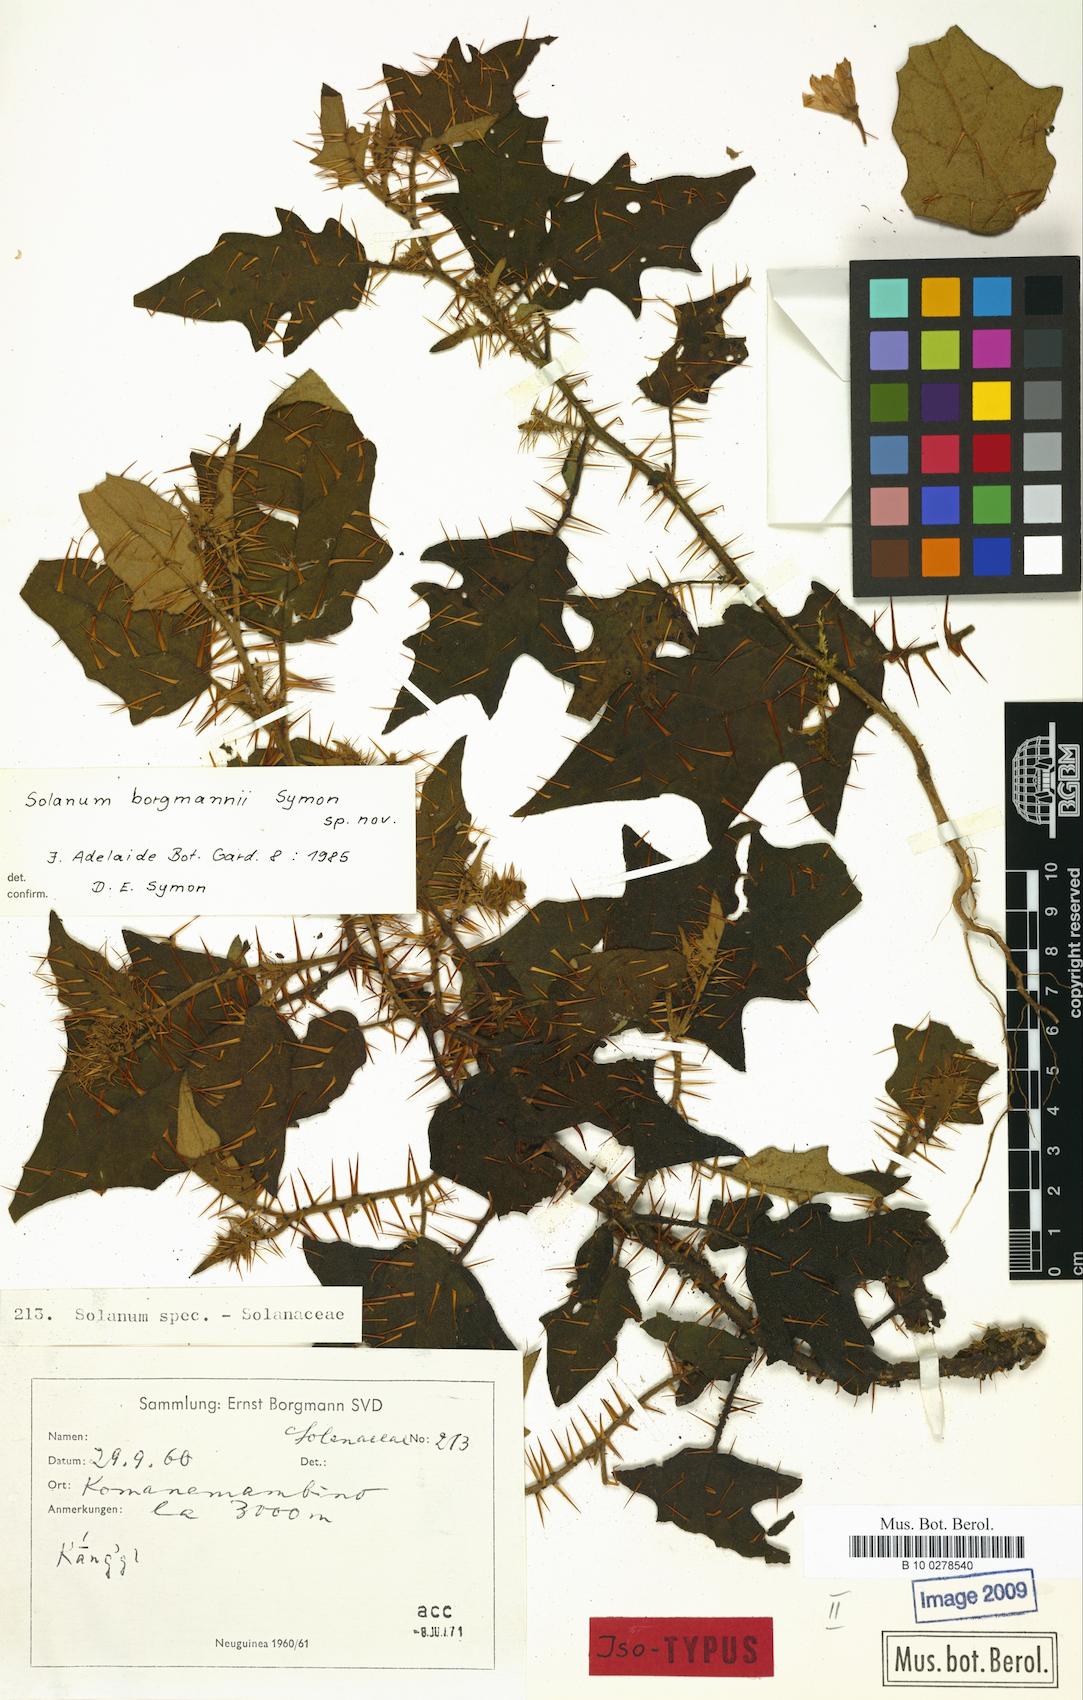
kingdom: Plantae
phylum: Tracheophyta
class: Magnoliopsida
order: Solanales
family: Solanaceae
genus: Solanum
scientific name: Solanum borgmannii
